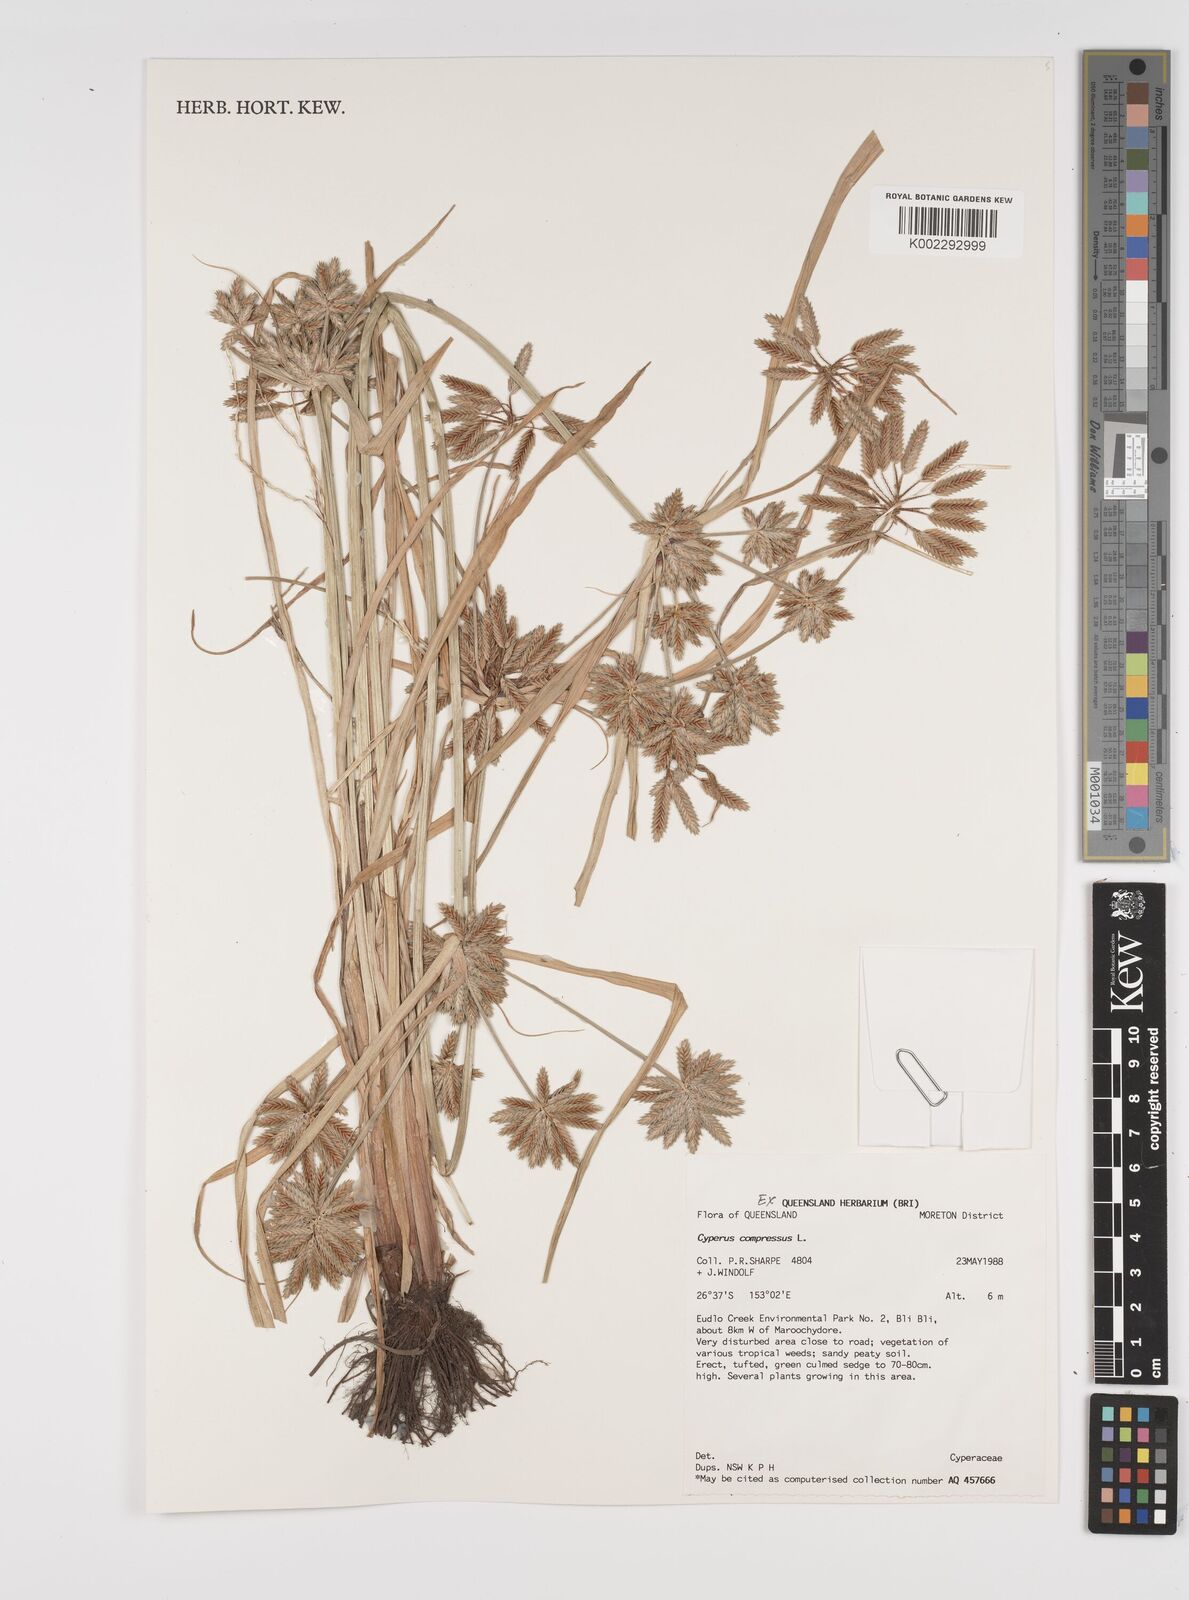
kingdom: Plantae
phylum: Tracheophyta
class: Liliopsida
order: Poales
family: Cyperaceae
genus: Cyperus
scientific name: Cyperus compressus
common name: Poorland flatsedge
